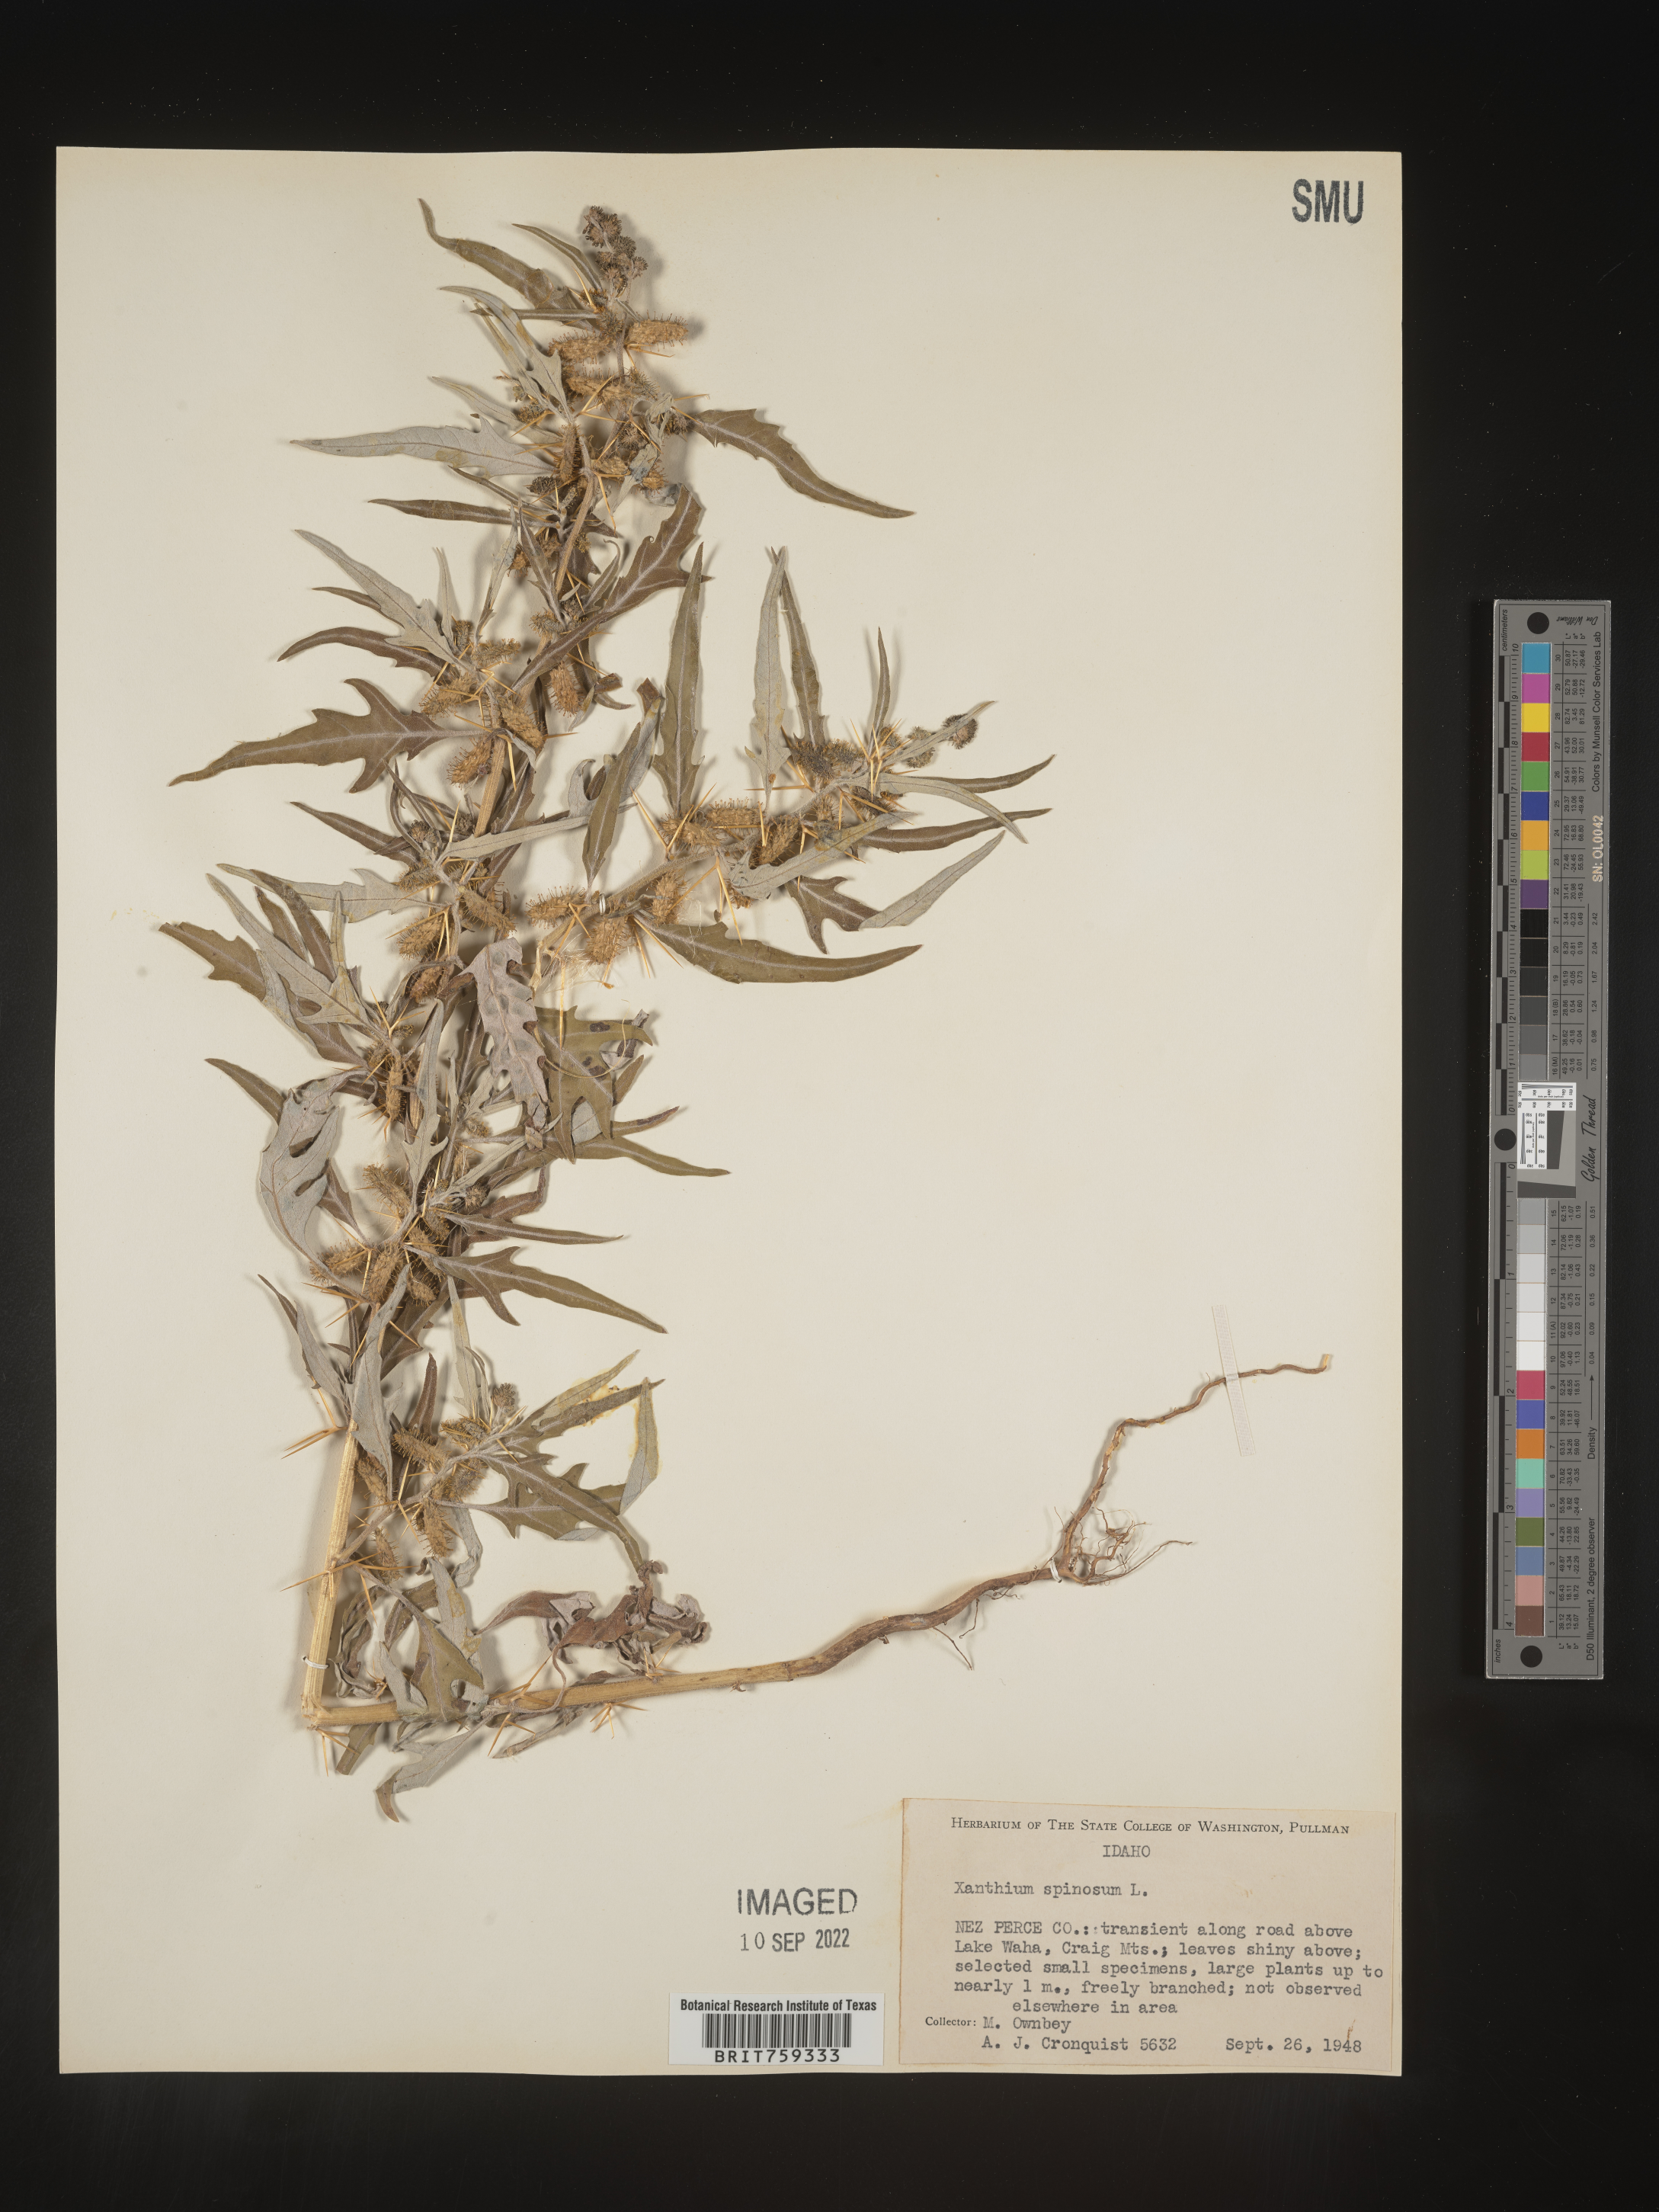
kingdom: Plantae
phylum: Tracheophyta
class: Magnoliopsida
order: Asterales
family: Asteraceae
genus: Xanthium
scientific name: Xanthium spinosum
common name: Spiny cocklebur
